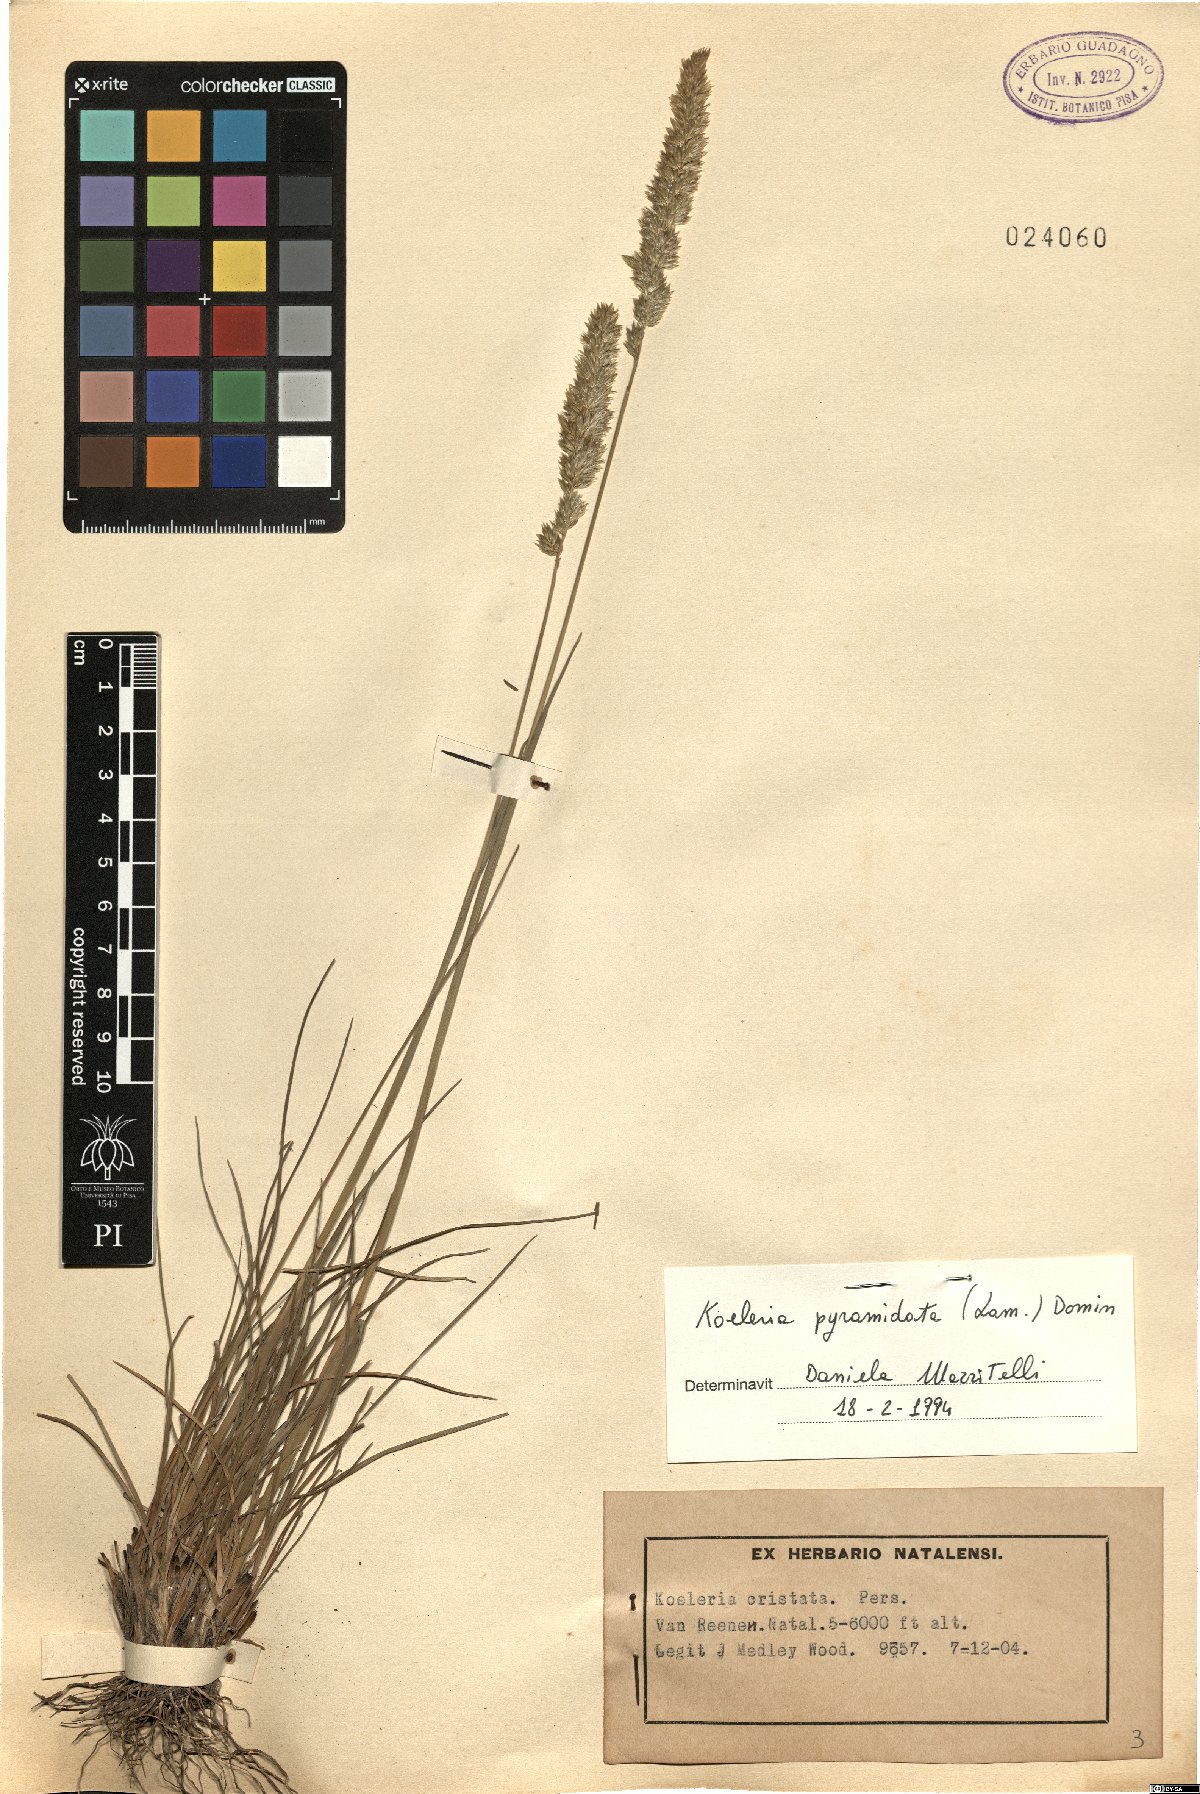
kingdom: Plantae
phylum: Tracheophyta
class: Liliopsida
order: Poales
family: Poaceae
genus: Koeleria
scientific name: Koeleria pyramidata
